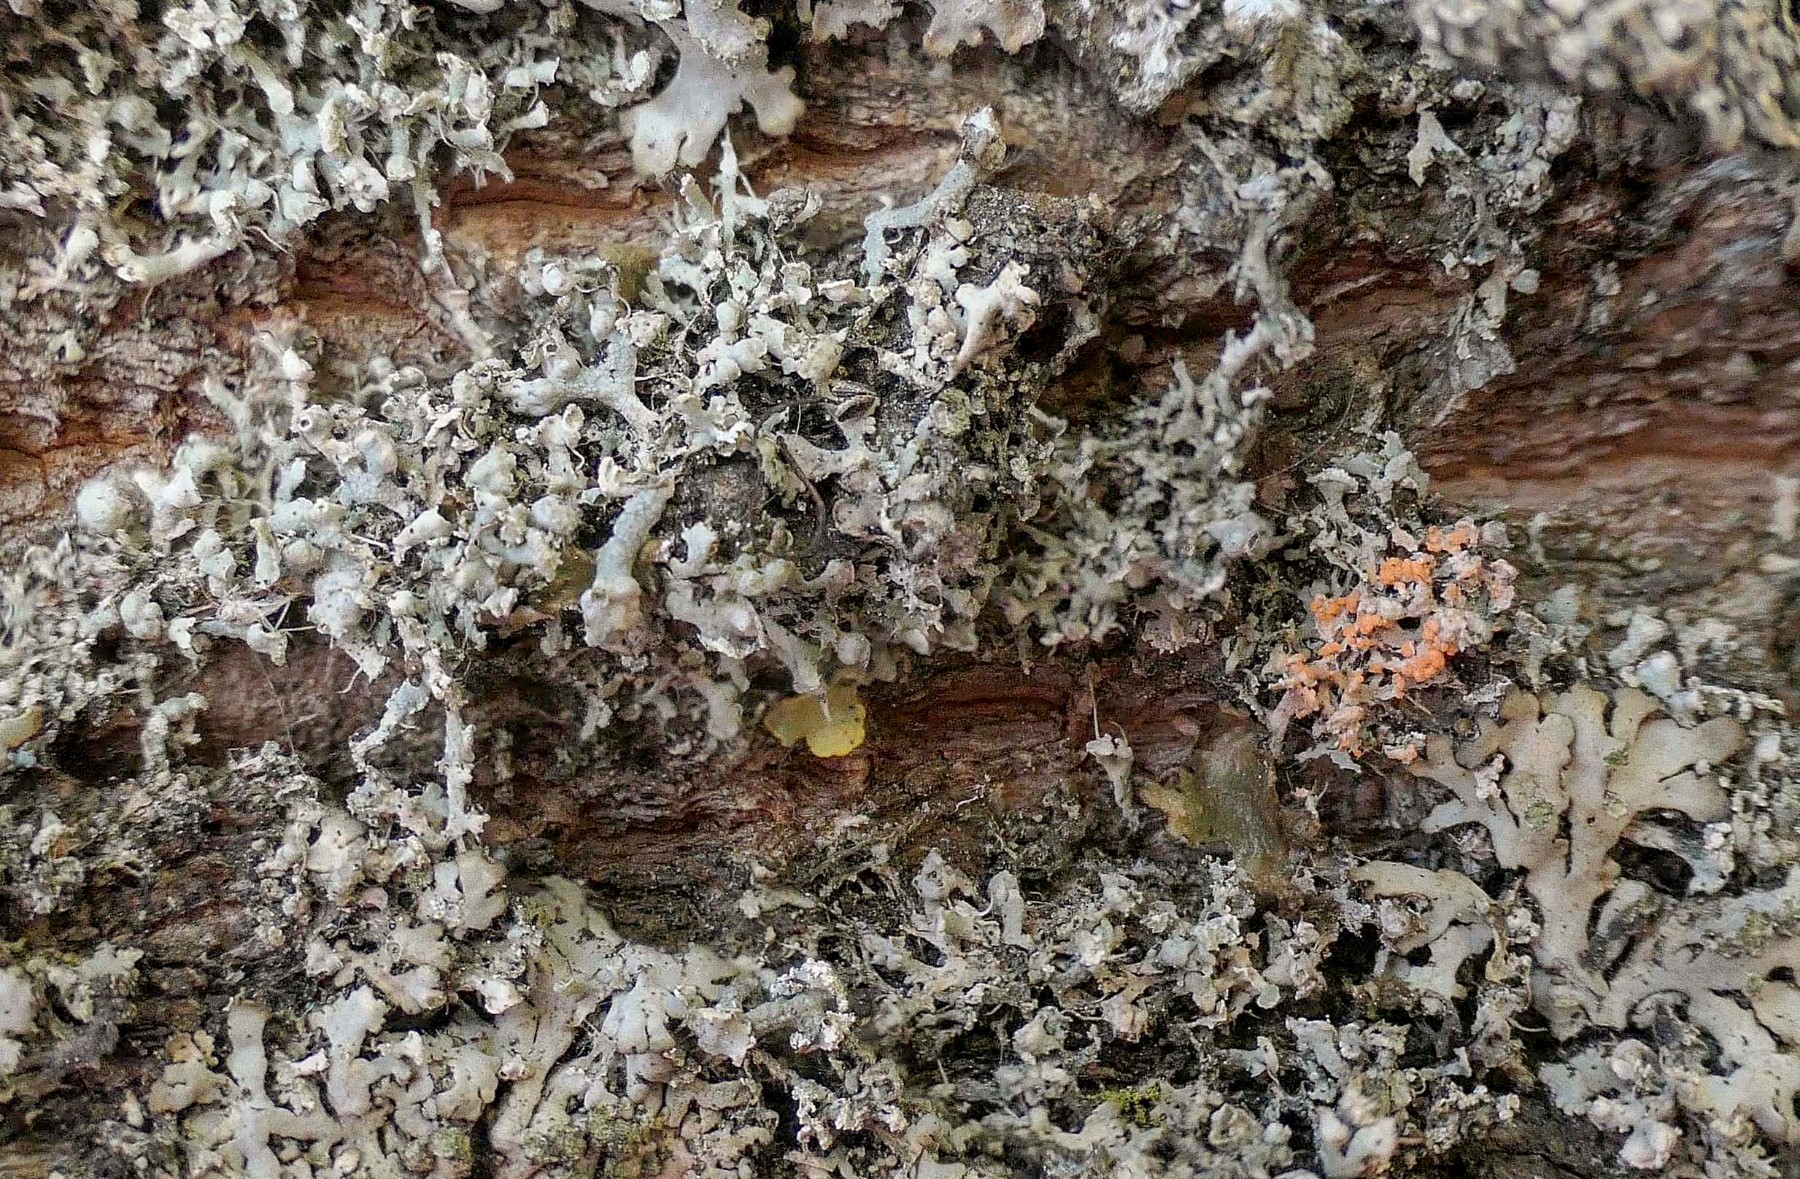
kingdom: Fungi
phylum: Basidiomycota
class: Agaricomycetes
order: Corticiales
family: Corticiaceae
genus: Erythricium
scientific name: Erythricium aurantiacum
